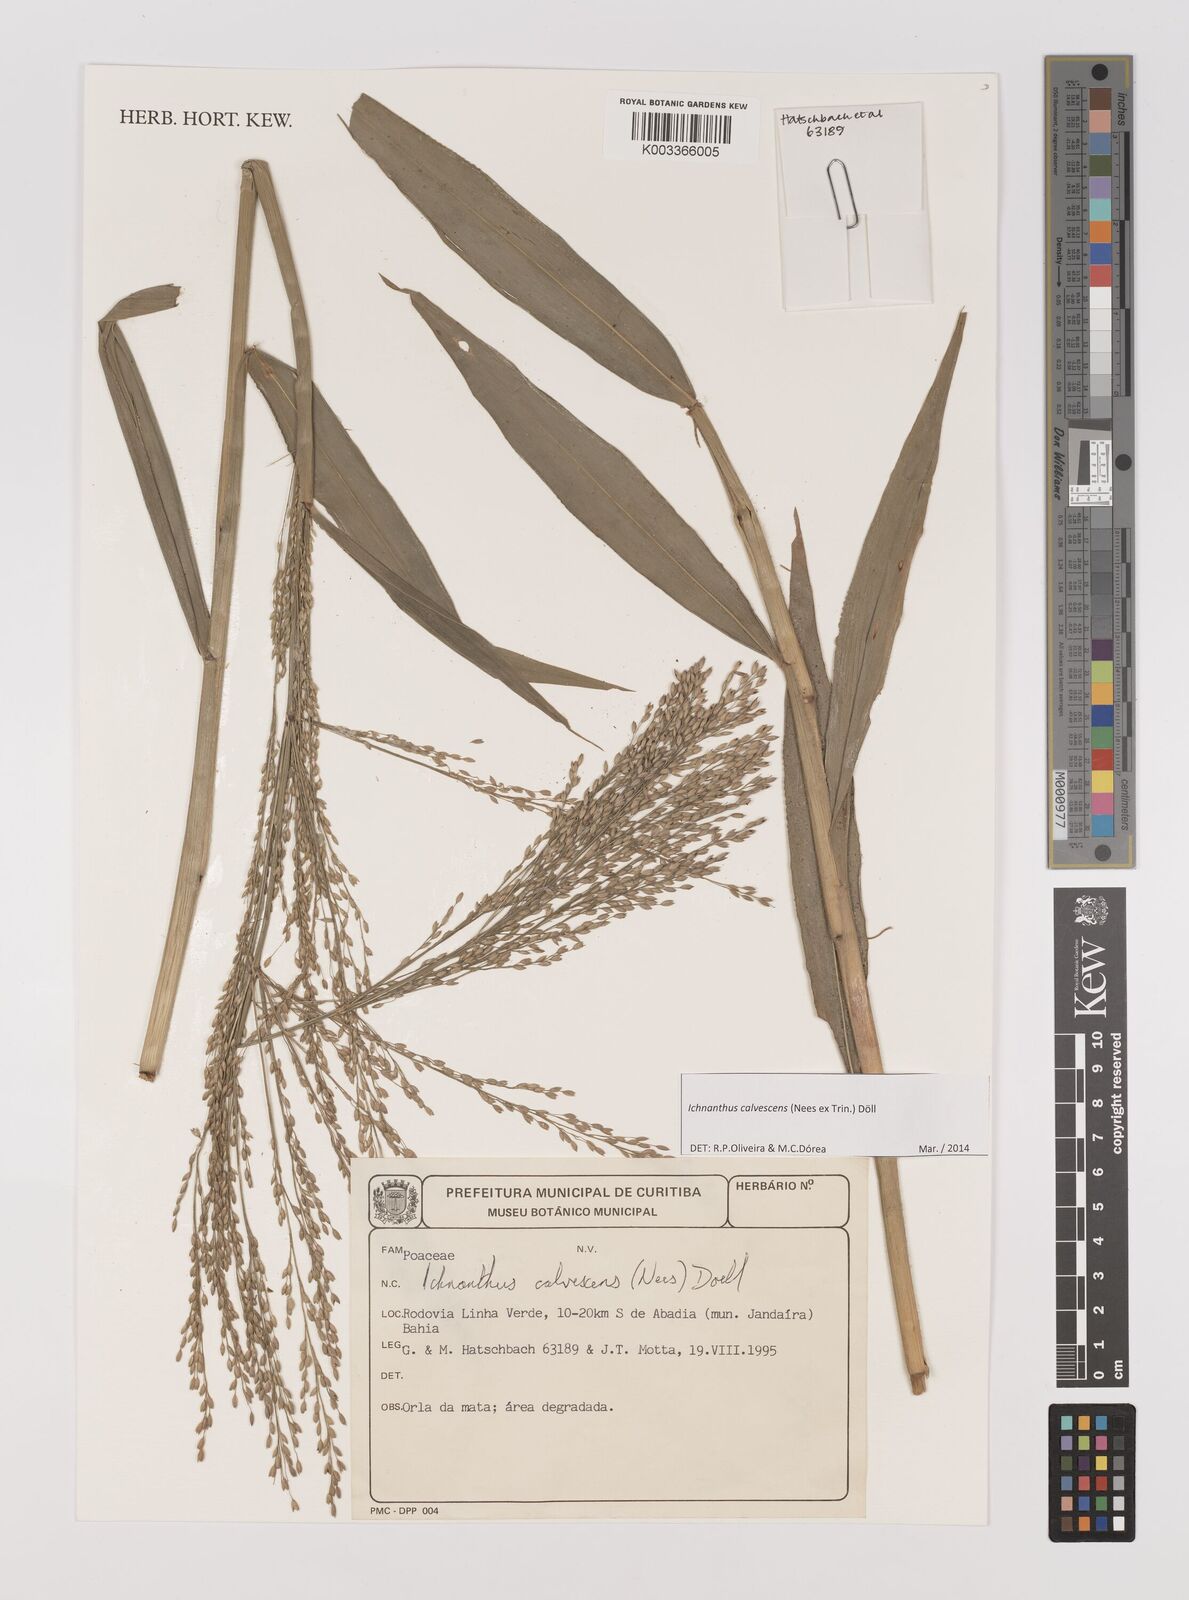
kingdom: Plantae
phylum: Tracheophyta
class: Liliopsida
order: Poales
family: Poaceae
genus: Ichnanthus
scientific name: Ichnanthus calvescens
